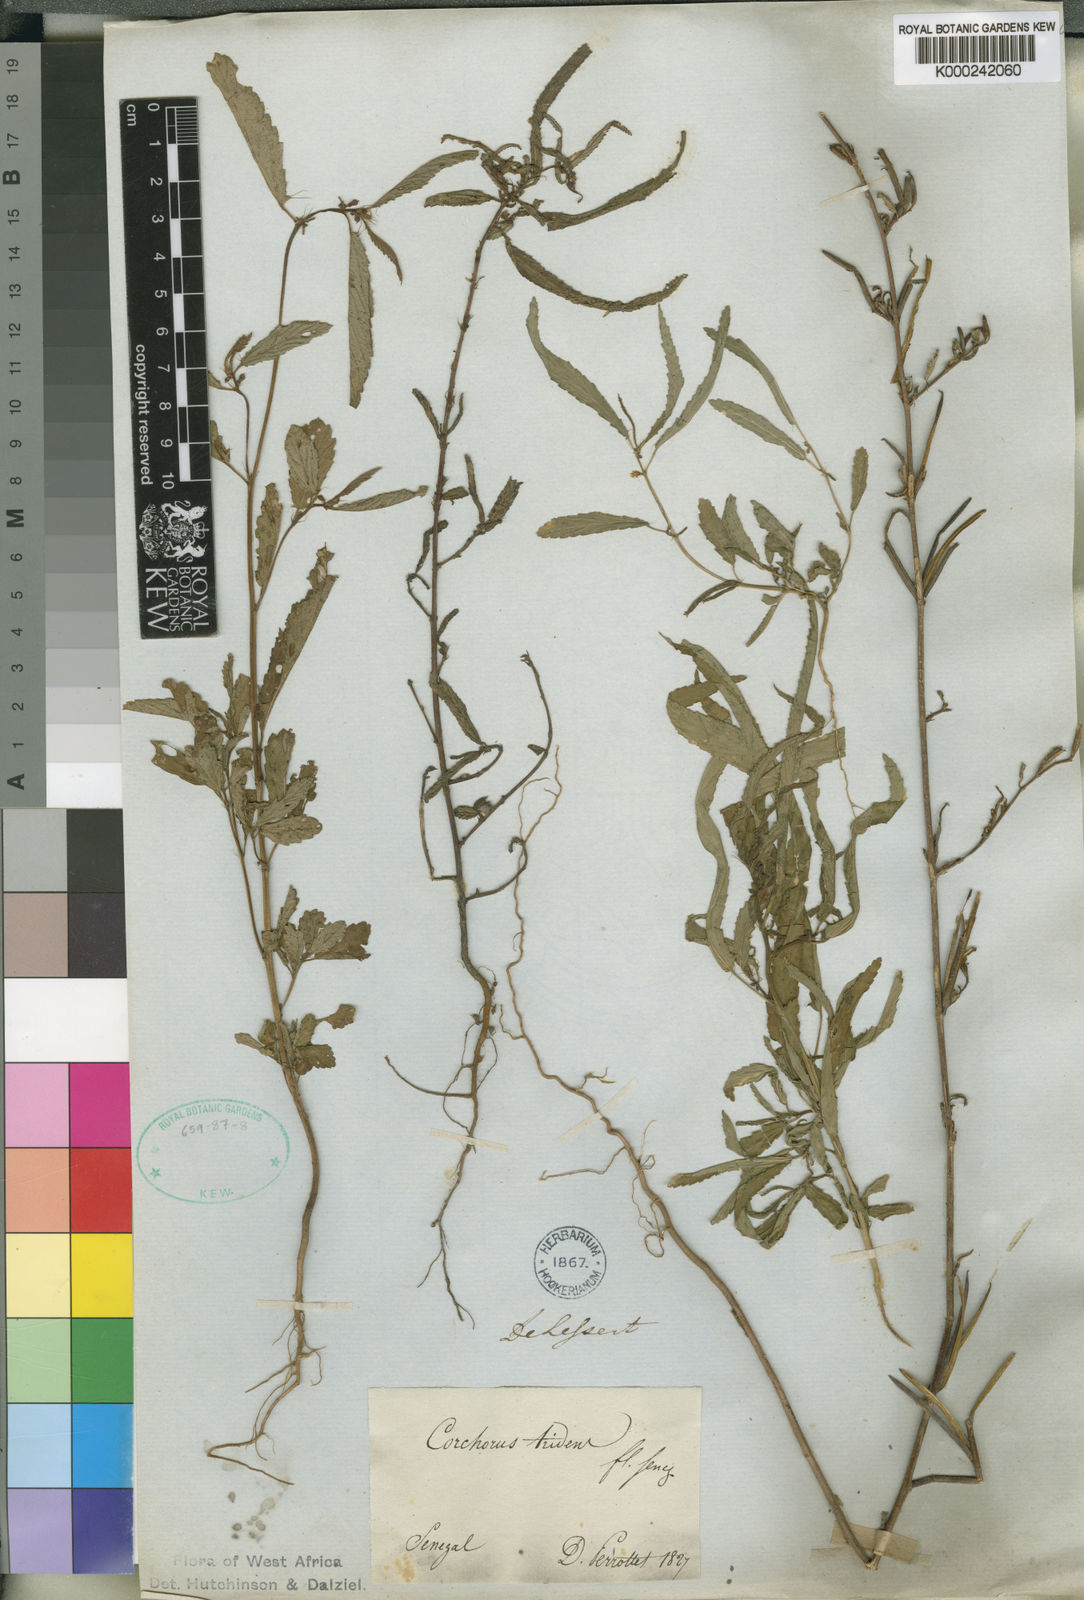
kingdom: Plantae
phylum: Tracheophyta
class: Magnoliopsida
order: Malvales
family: Malvaceae
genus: Corchorus
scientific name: Corchorus tridens
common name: Wild jute
